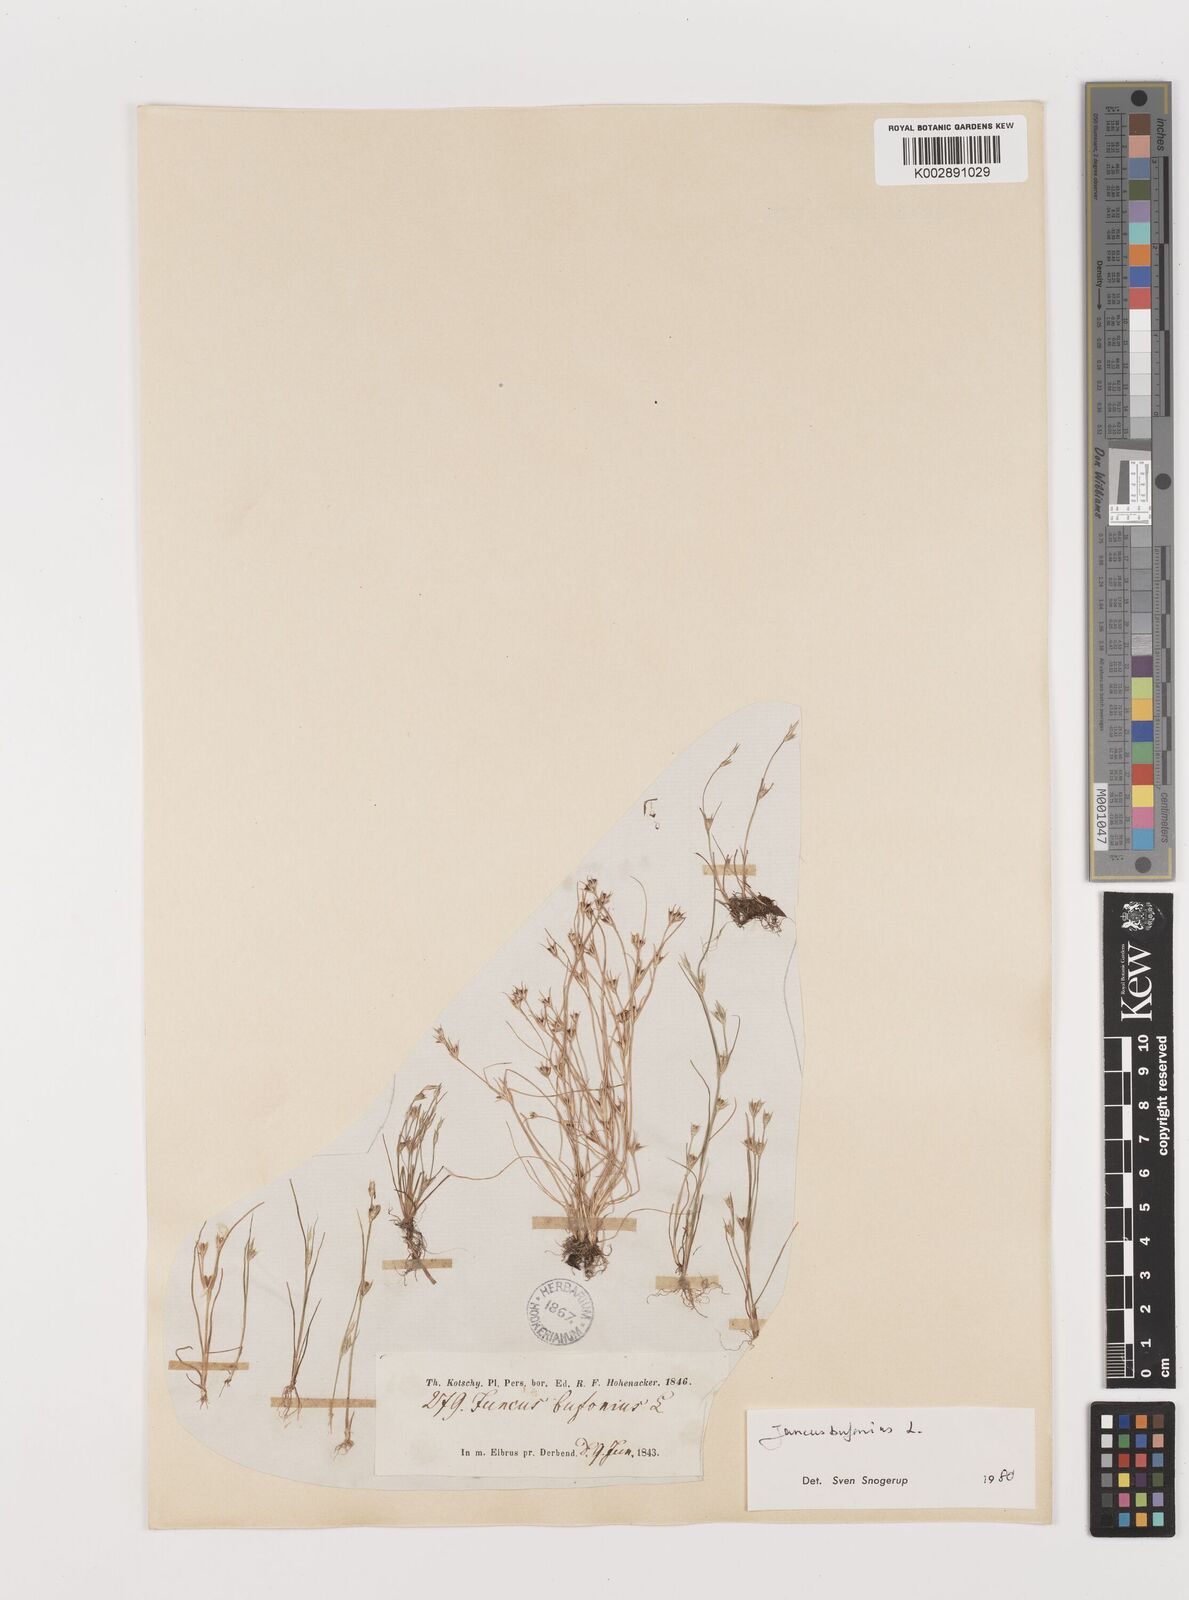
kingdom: Plantae
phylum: Tracheophyta
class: Liliopsida
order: Poales
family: Juncaceae
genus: Juncus
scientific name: Juncus bufonius
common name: Toad rush
